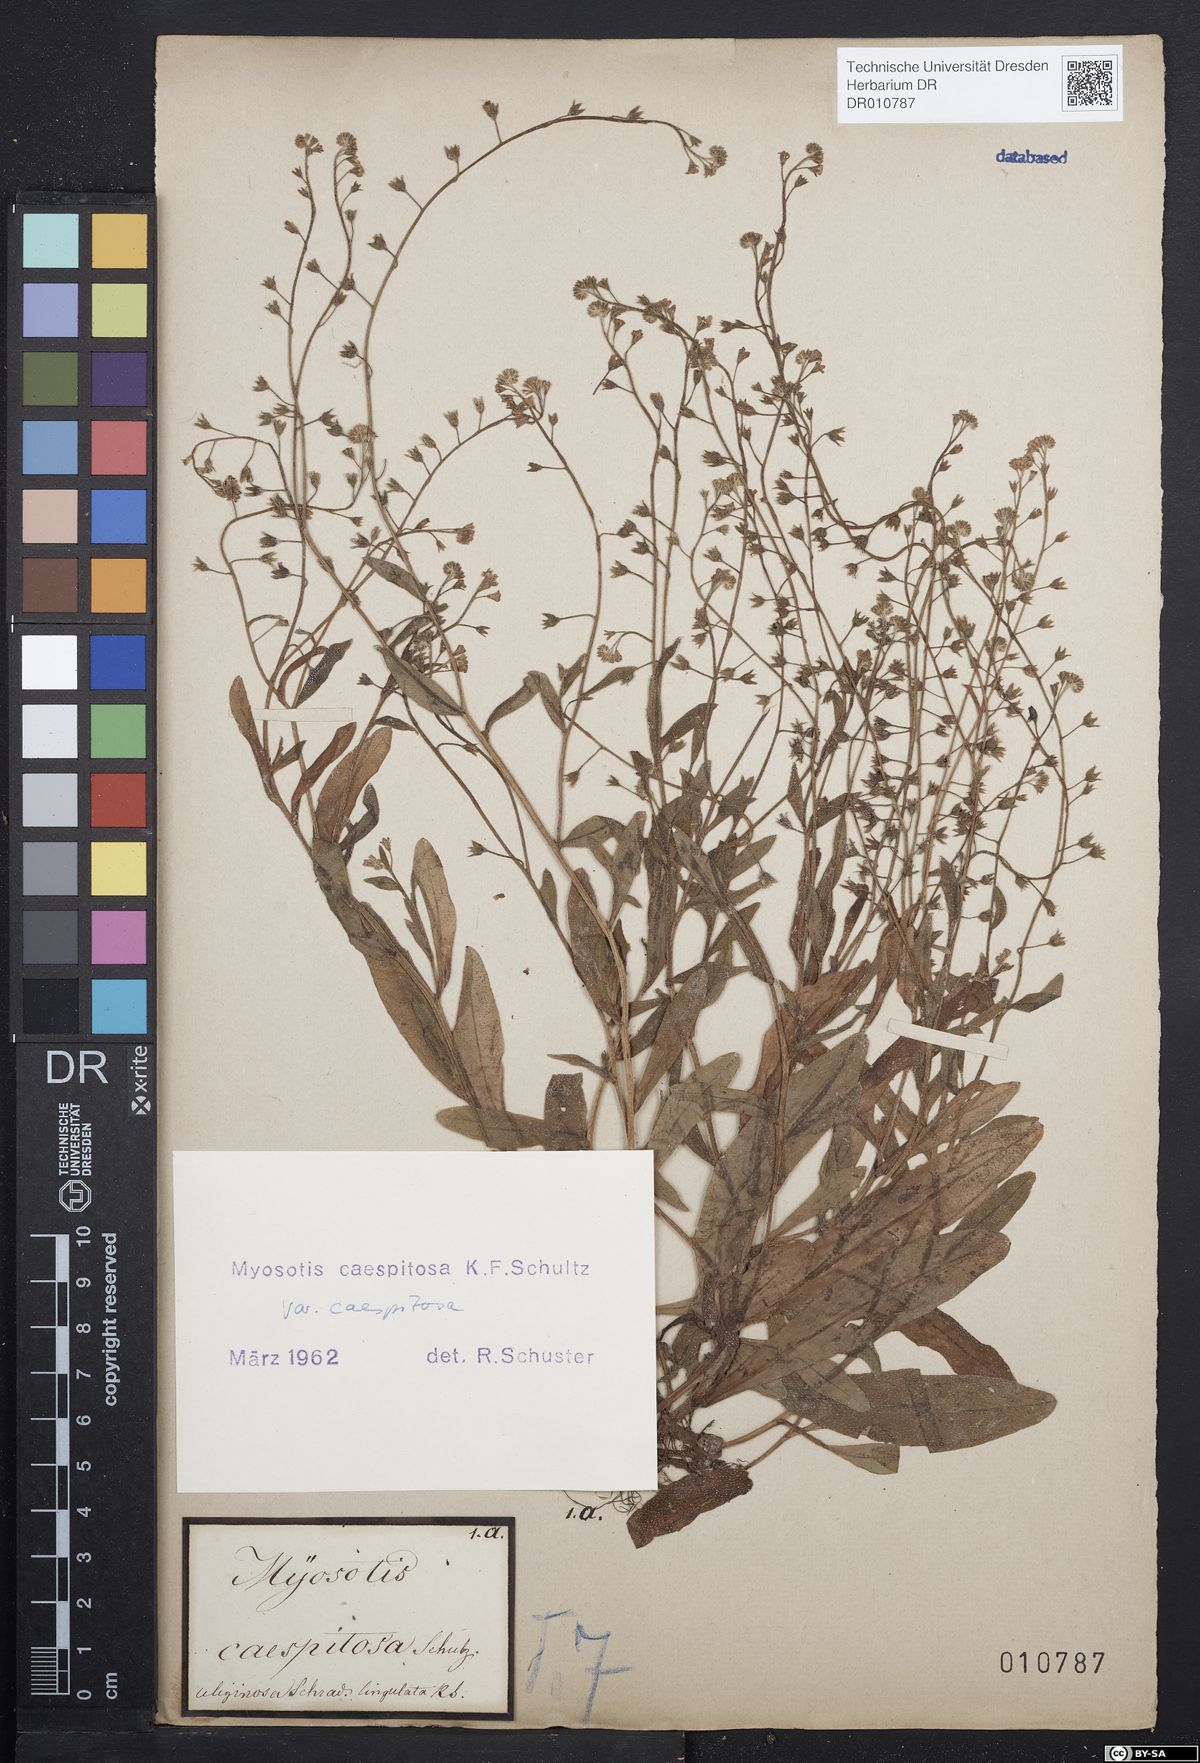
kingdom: Plantae
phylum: Tracheophyta
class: Magnoliopsida
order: Boraginales
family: Boraginaceae
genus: Myosotis
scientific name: Myosotis laxa
